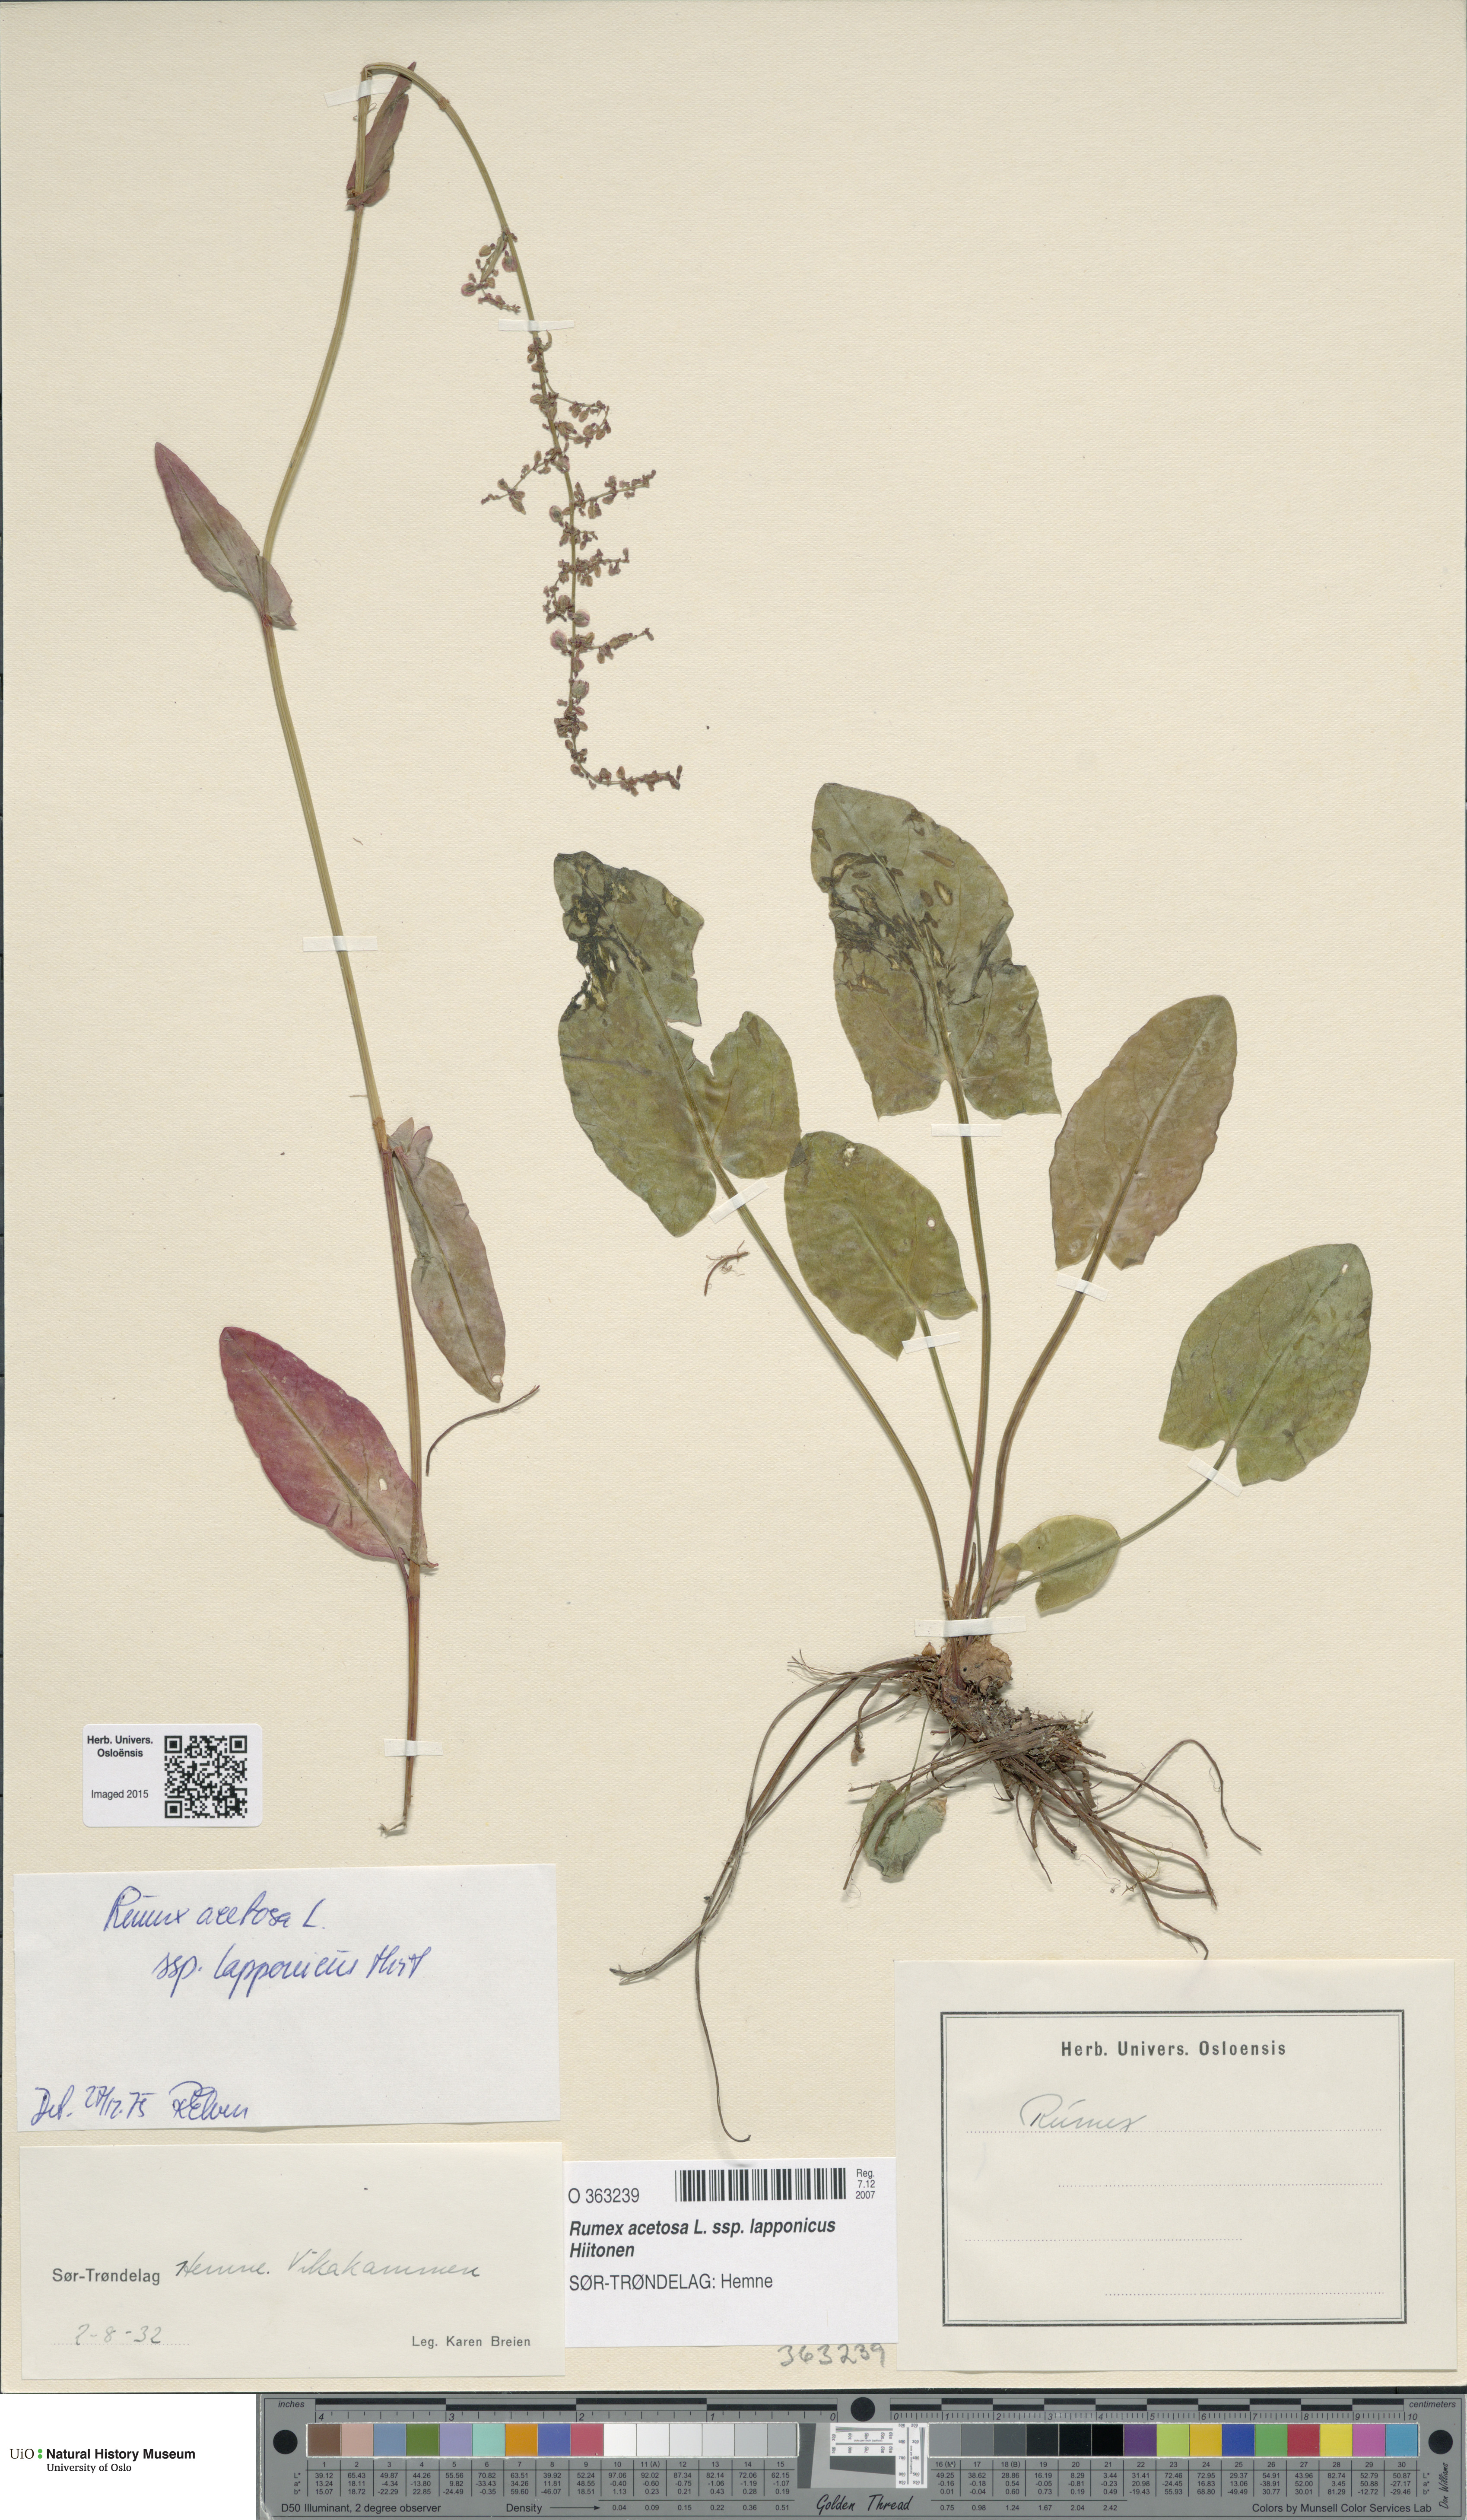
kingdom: Plantae
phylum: Tracheophyta
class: Magnoliopsida
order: Caryophyllales
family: Polygonaceae
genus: Rumex
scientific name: Rumex lapponicus
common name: Lapland mountain sorrel
